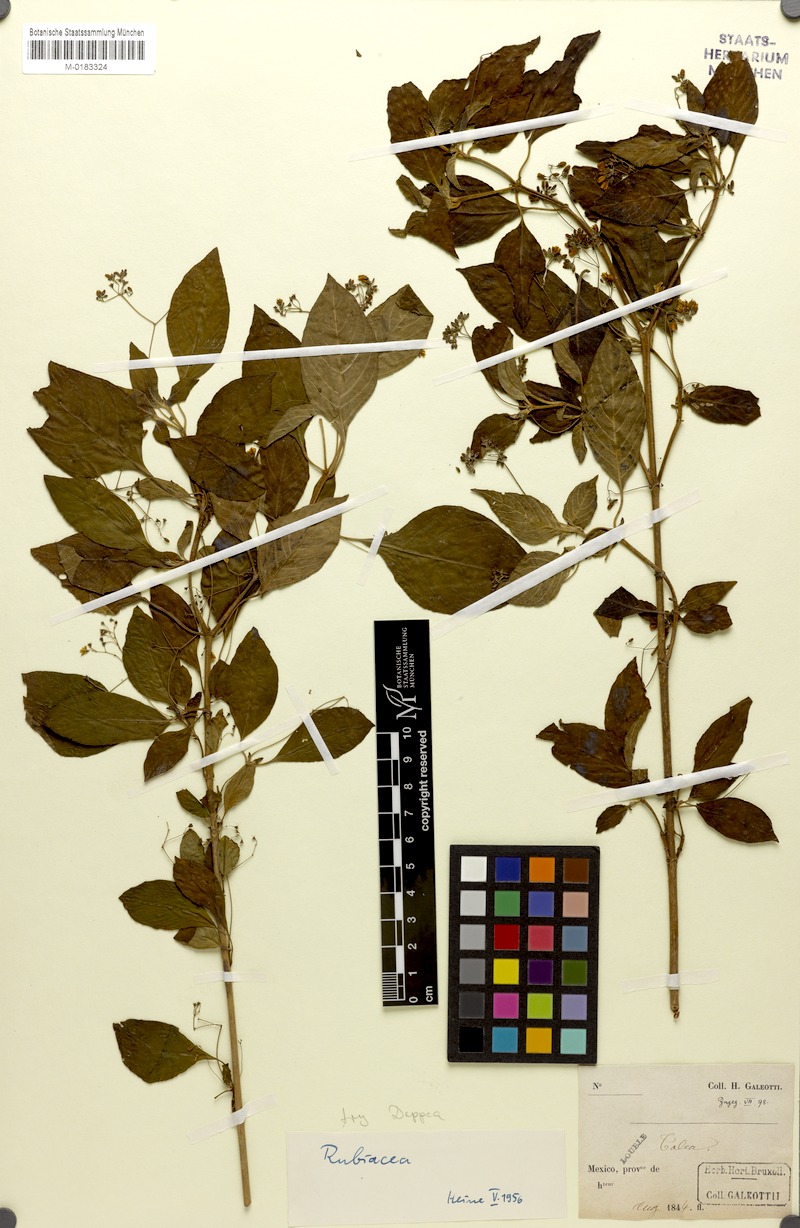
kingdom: Plantae
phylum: Tracheophyta
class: Magnoliopsida
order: Gentianales
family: Rubiaceae
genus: Arachnothryx
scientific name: Arachnothryx galeottii
